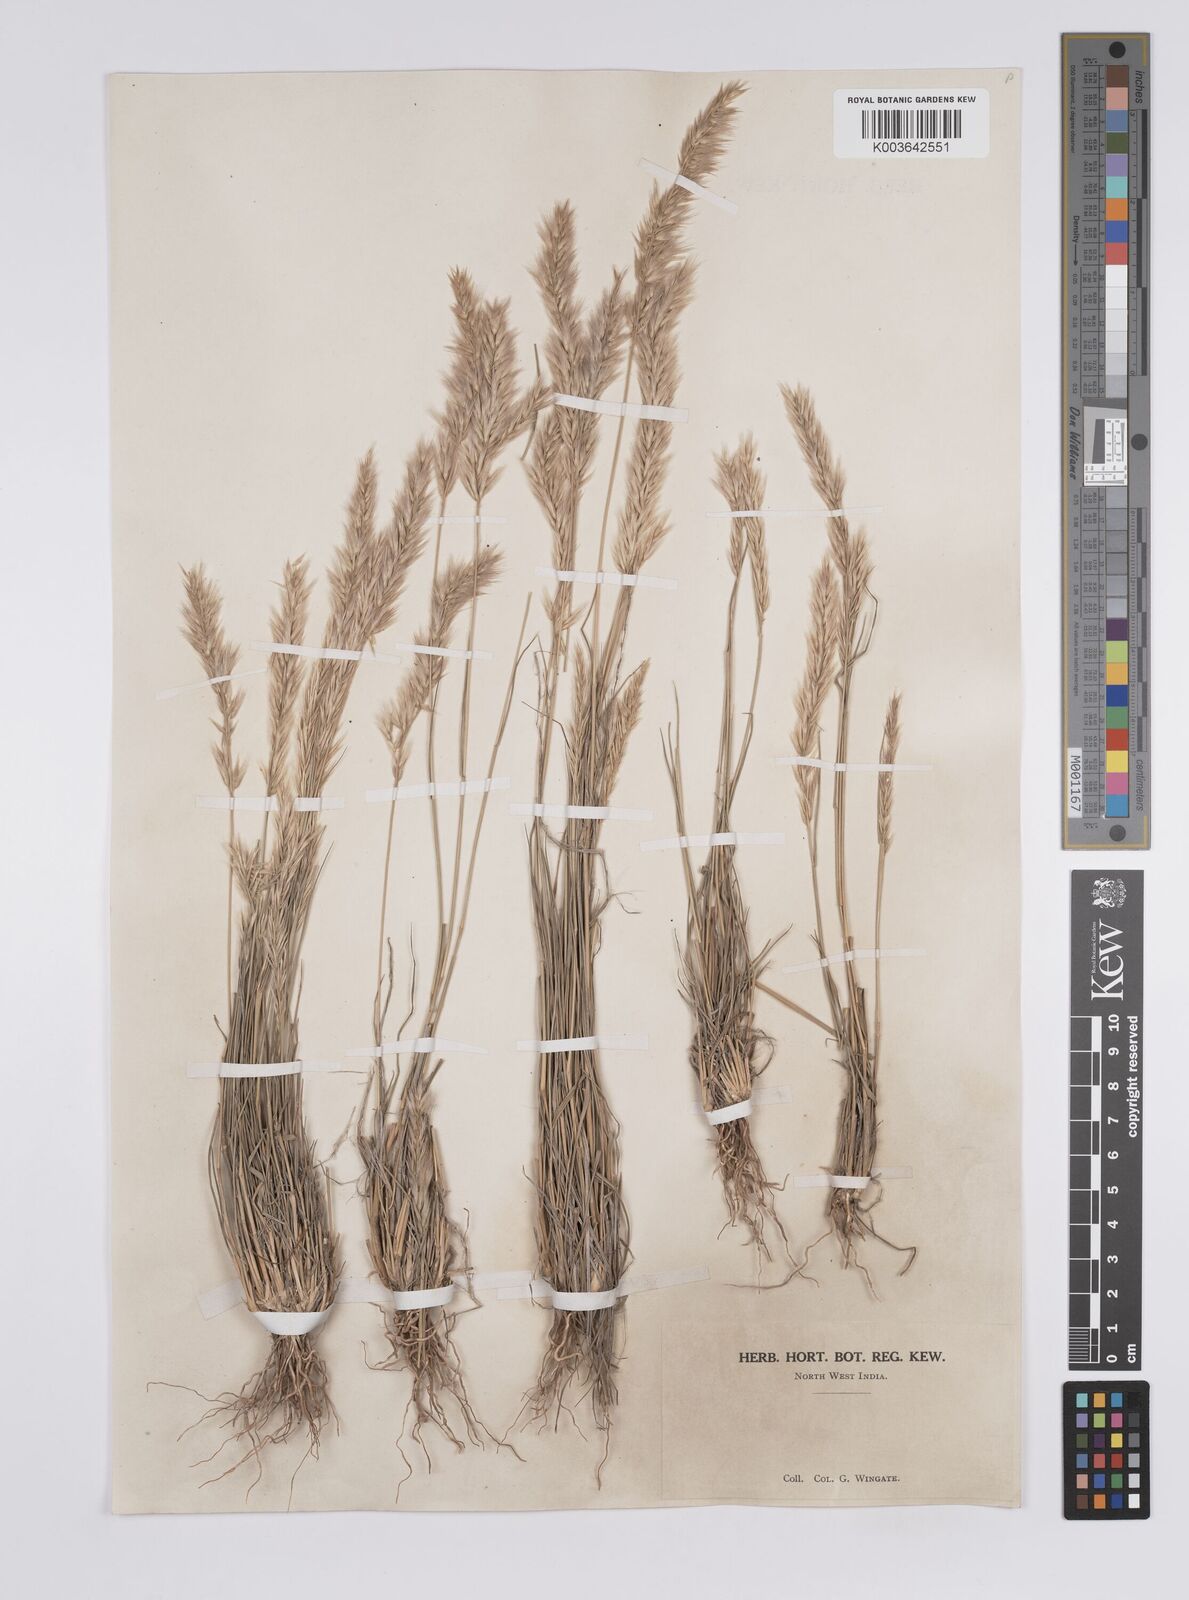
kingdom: Plantae
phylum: Tracheophyta
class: Liliopsida
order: Poales
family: Poaceae
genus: Enneapogon
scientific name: Enneapogon persicus
